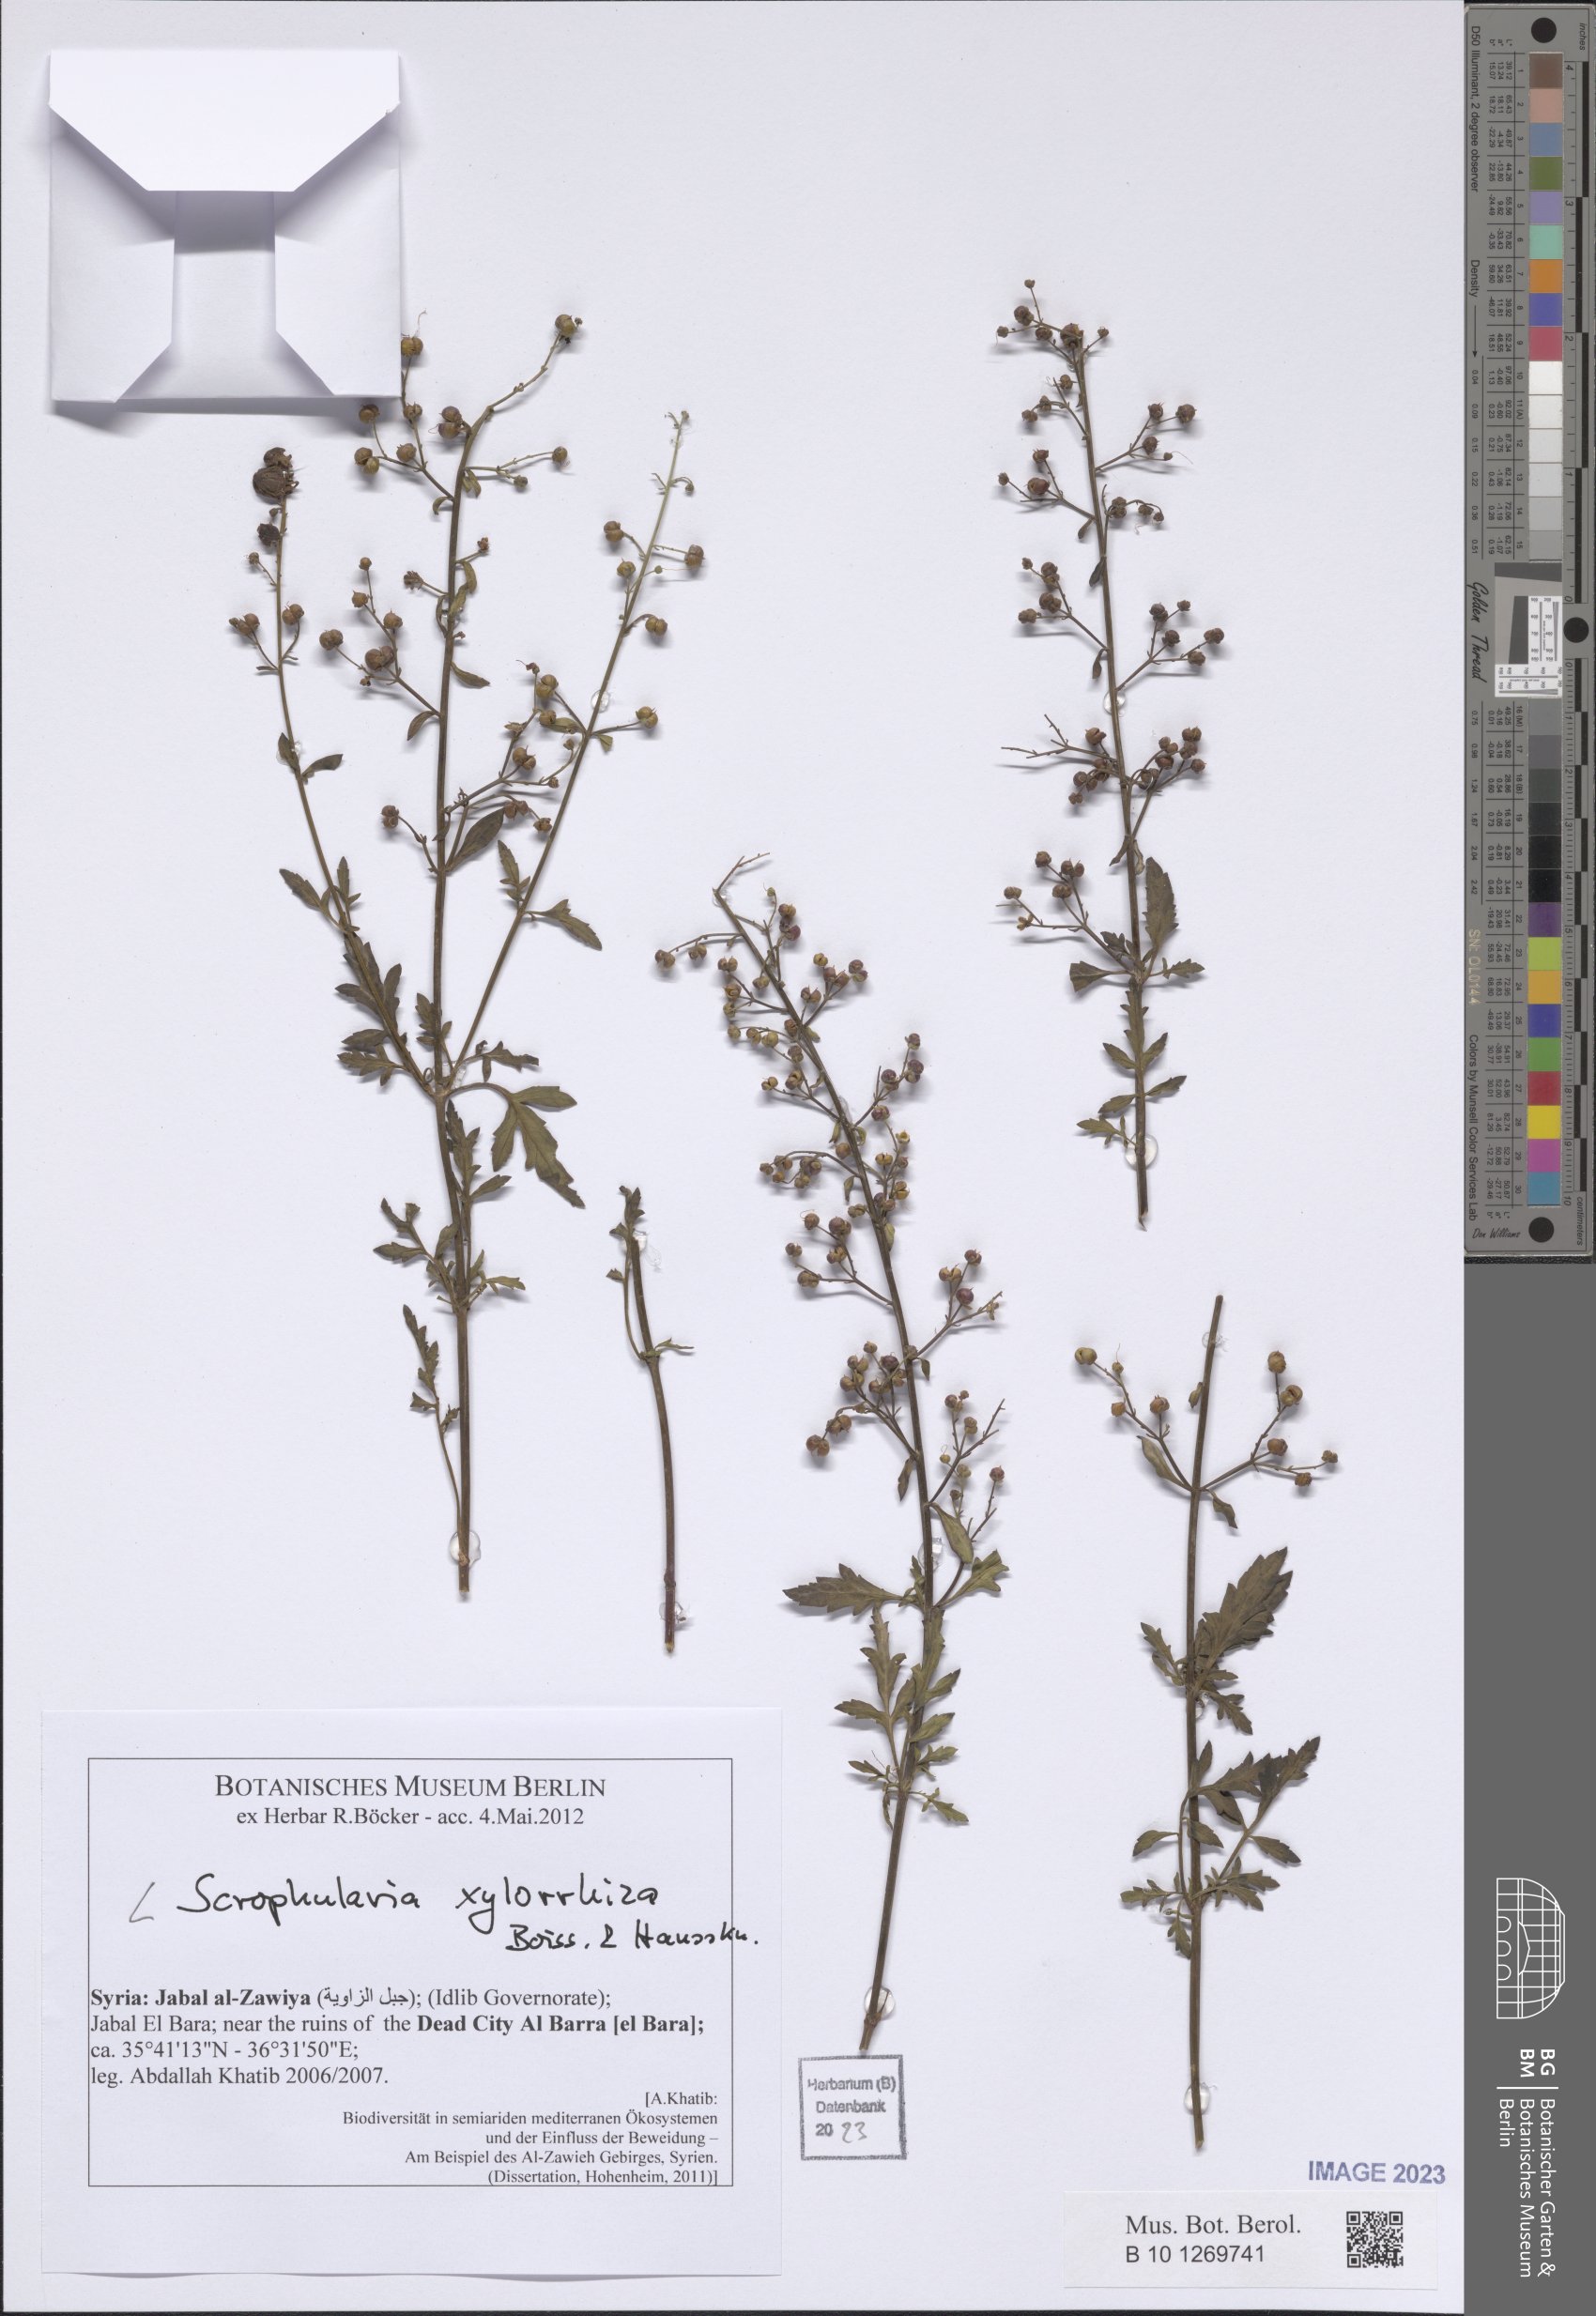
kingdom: Plantae
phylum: Tracheophyta
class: Magnoliopsida
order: Lamiales
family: Scrophulariaceae
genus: Scrophularia
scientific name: Scrophularia xylorrhiza
